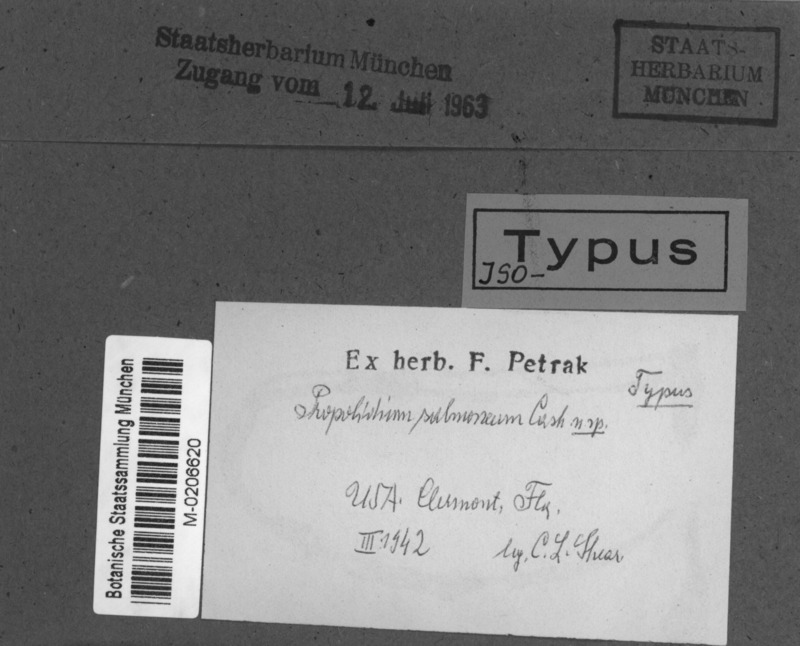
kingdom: Fungi
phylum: Ascomycota
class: Leotiomycetes
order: Rhytismatales
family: Rhytismataceae
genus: Propolidium
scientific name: Propolidium salmoneum
